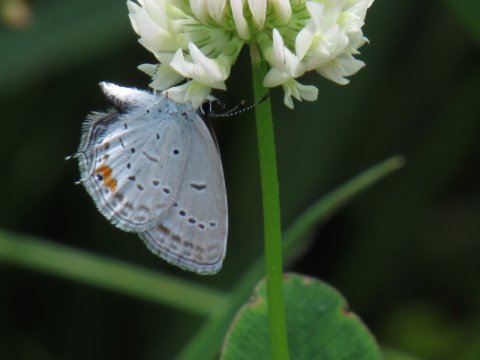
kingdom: Animalia
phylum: Arthropoda
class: Insecta
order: Lepidoptera
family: Lycaenidae
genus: Elkalyce
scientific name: Elkalyce comyntas
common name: Eastern Tailed-Blue
